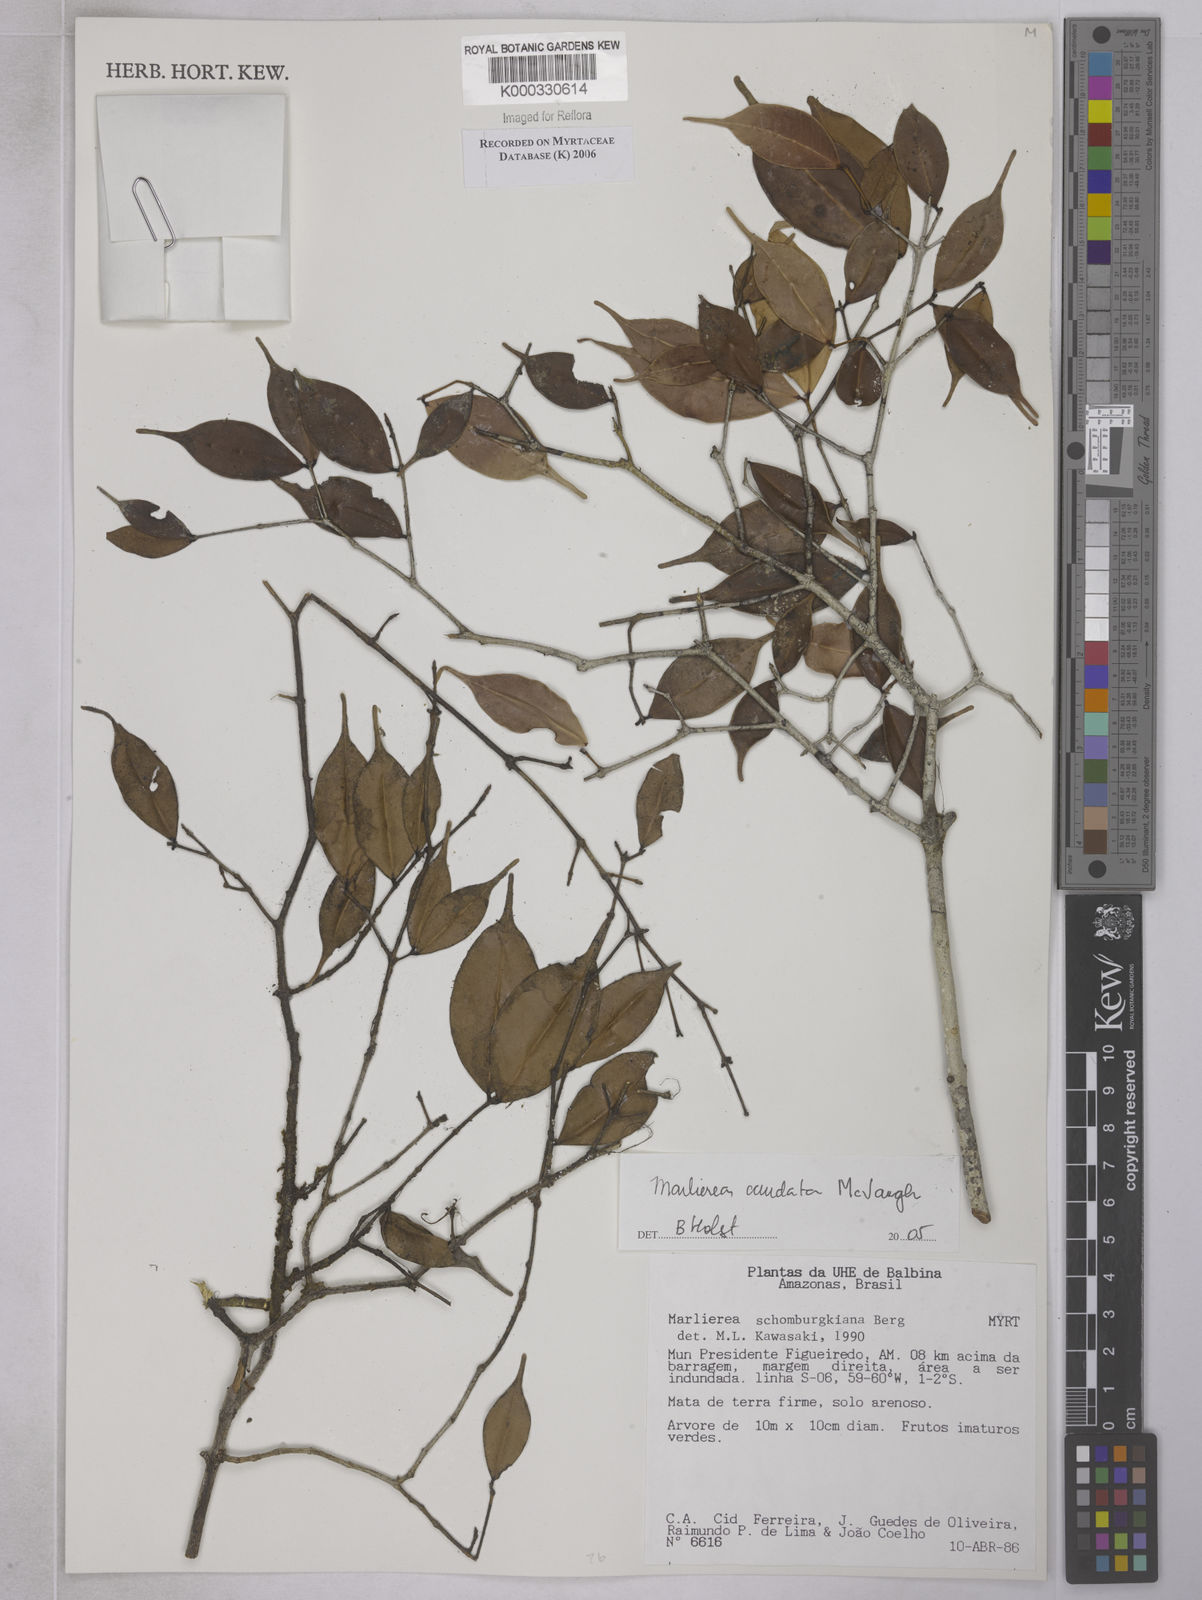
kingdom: Plantae
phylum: Tracheophyta
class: Magnoliopsida
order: Myrtales
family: Myrtaceae
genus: Myrcia
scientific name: Myrcia caudata
